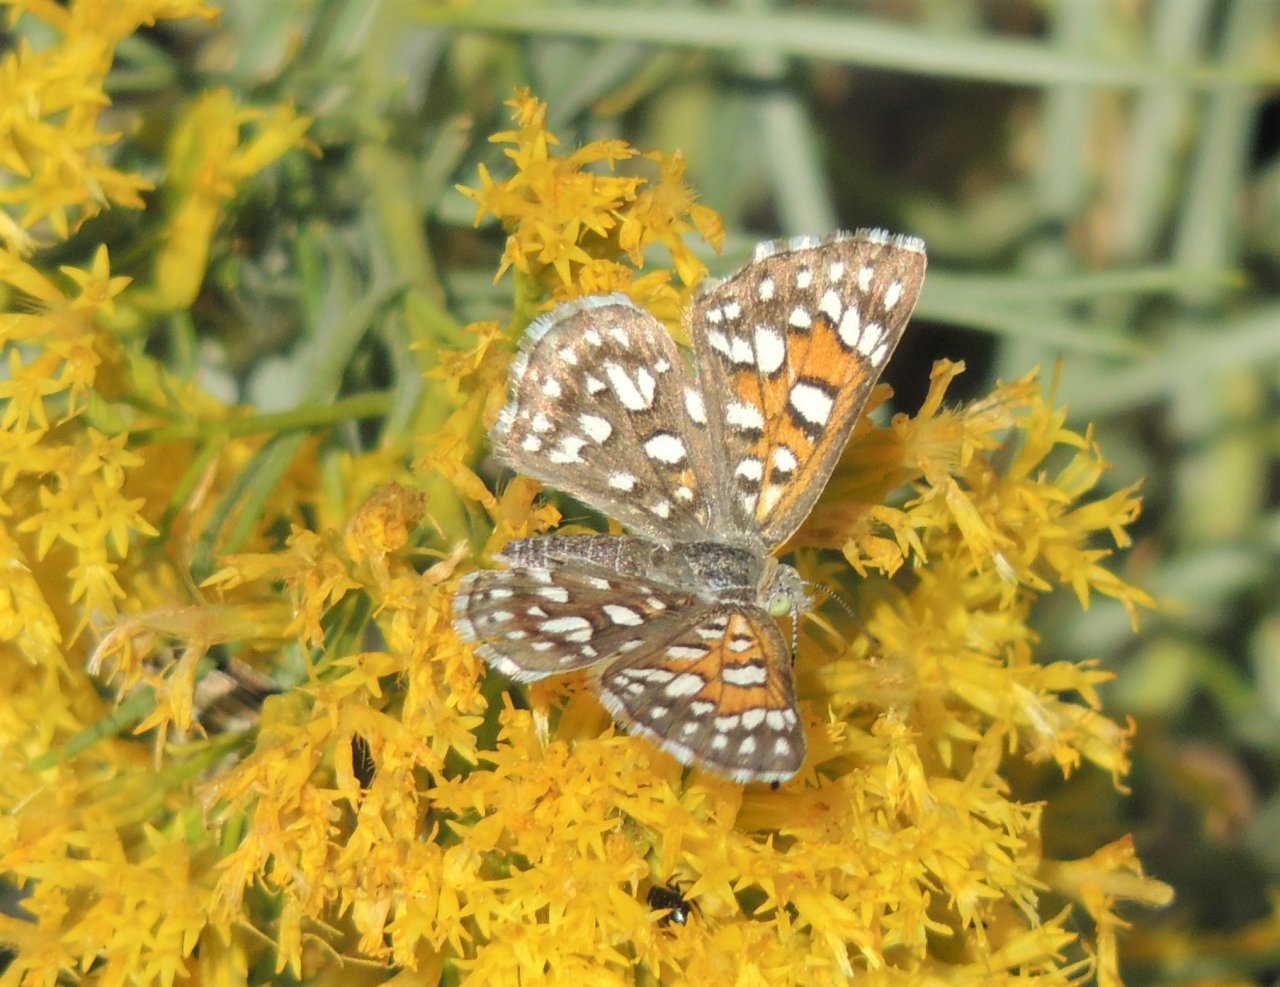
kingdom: Animalia
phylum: Arthropoda
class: Insecta
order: Lepidoptera
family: Riodinidae
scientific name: Riodinidae
